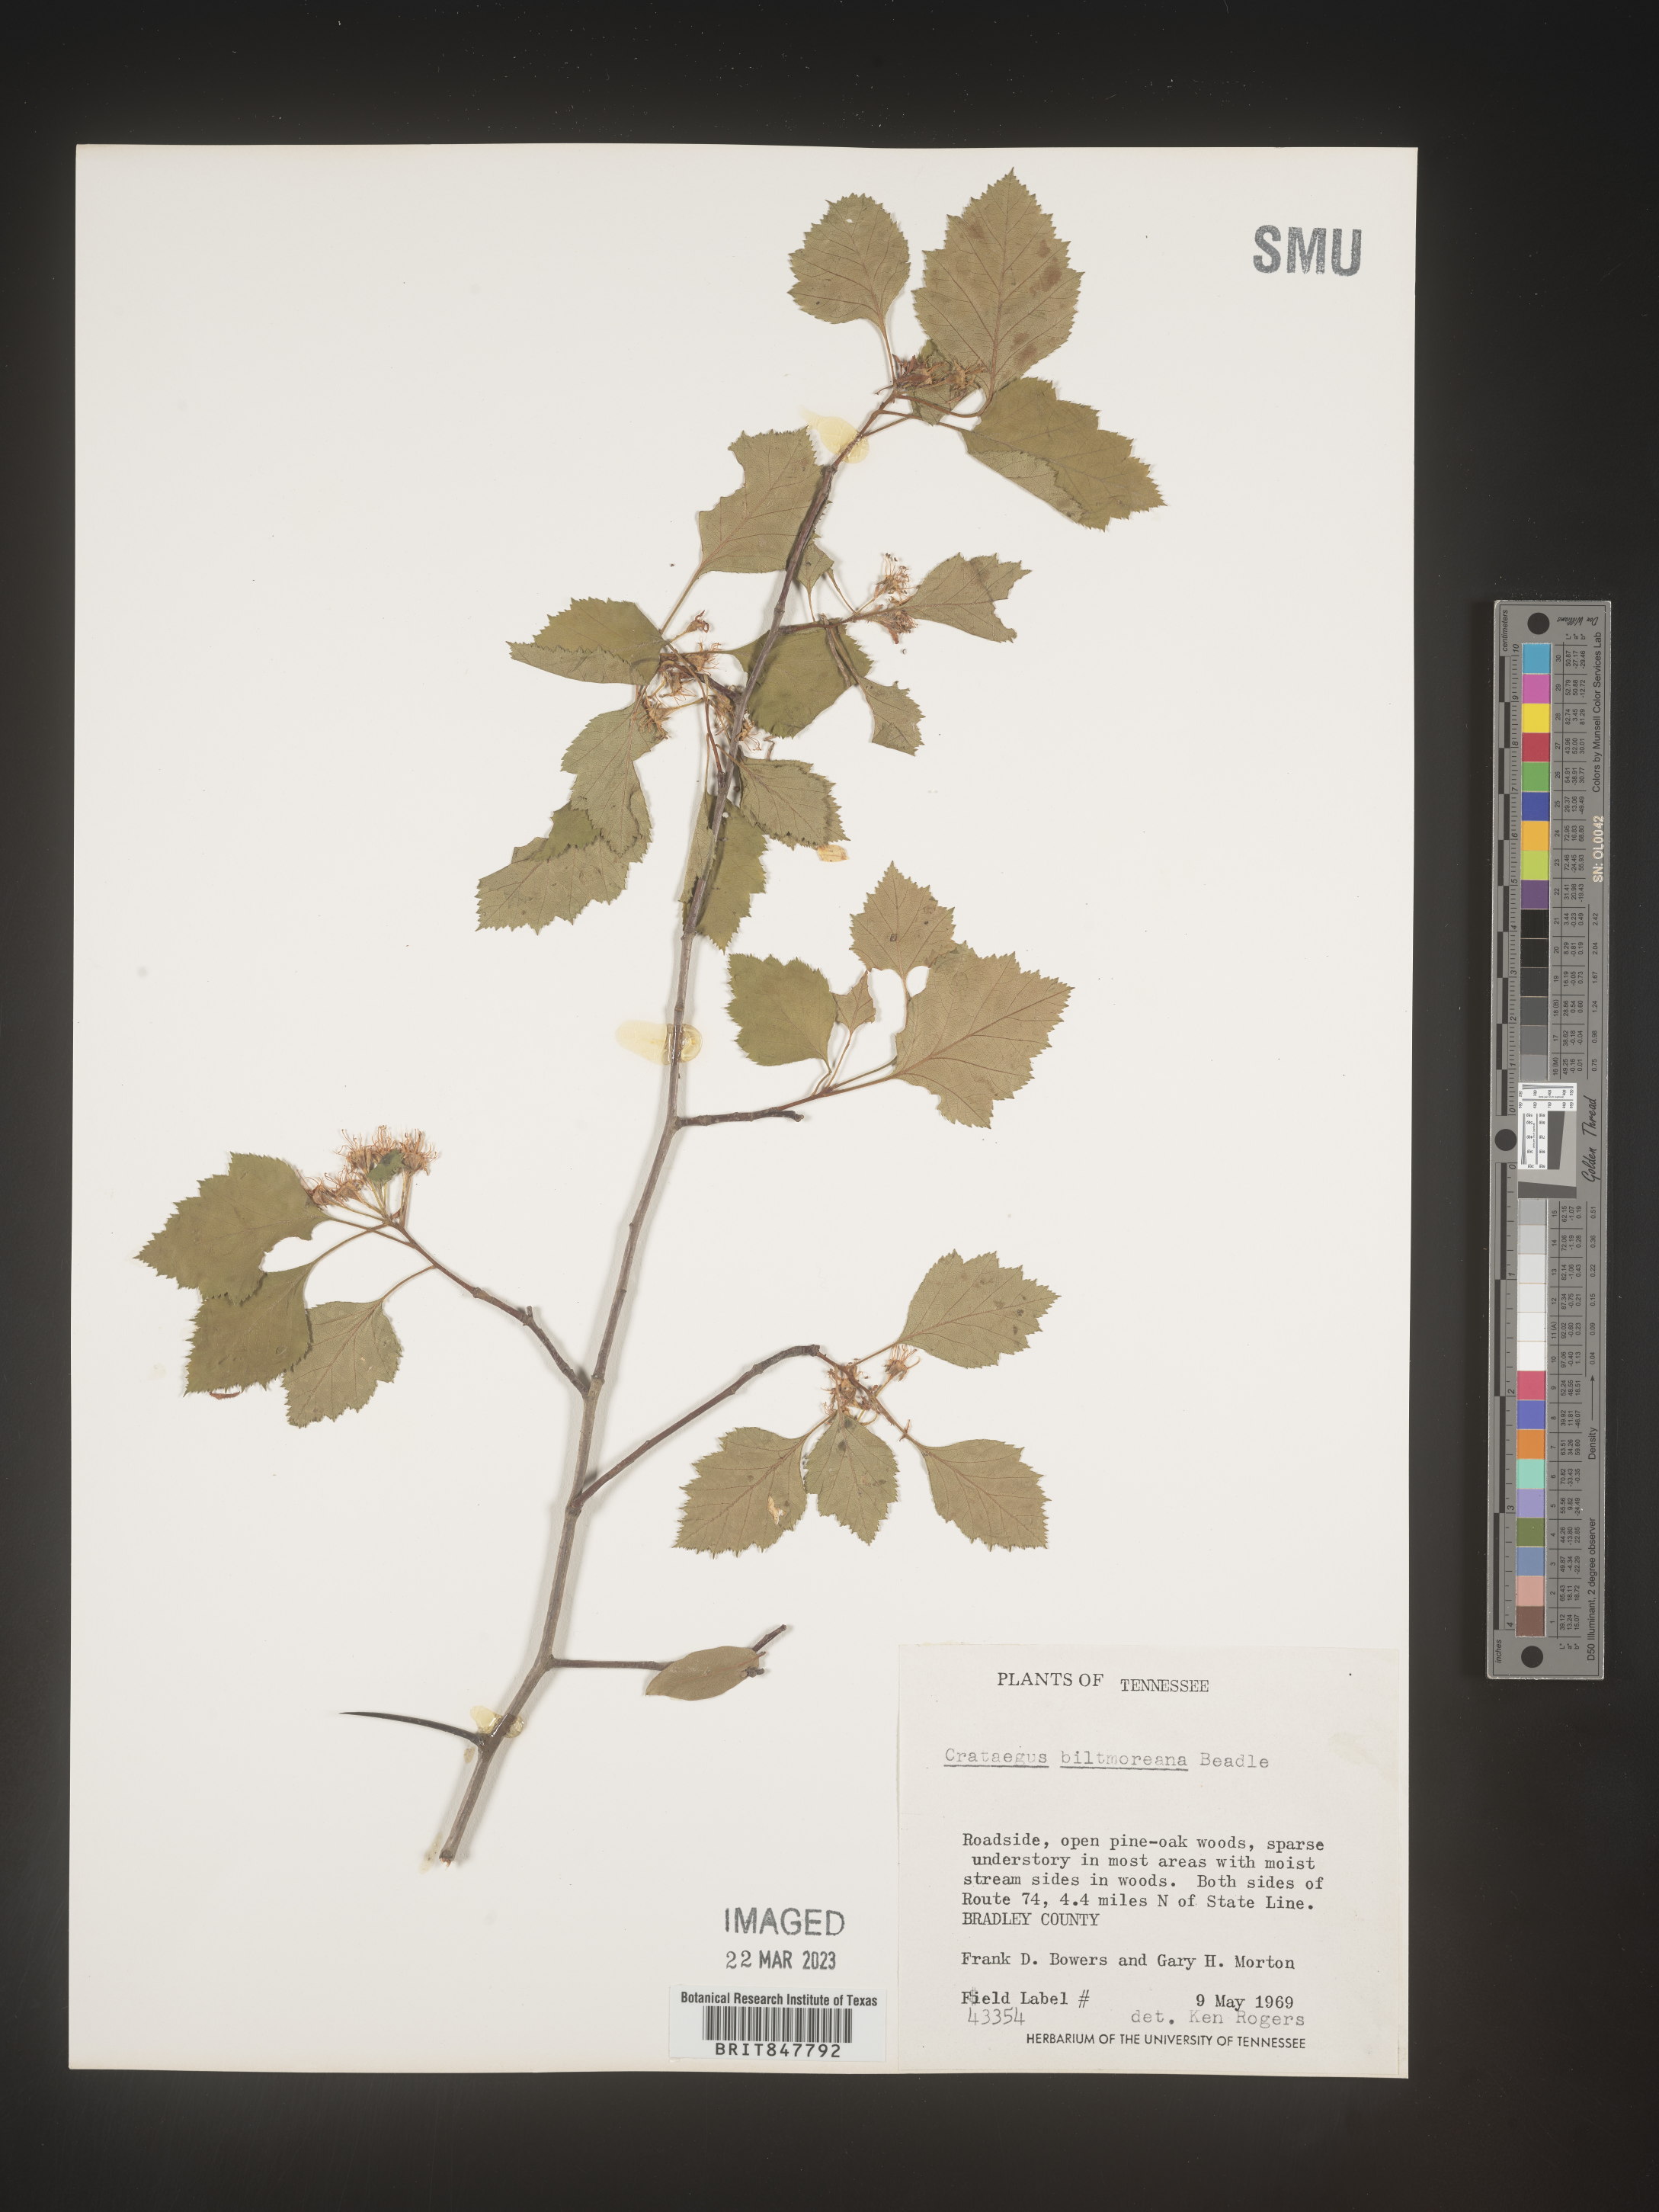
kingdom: Plantae
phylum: Tracheophyta
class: Magnoliopsida
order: Rosales
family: Rosaceae
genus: Crataegus
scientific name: Crataegus
